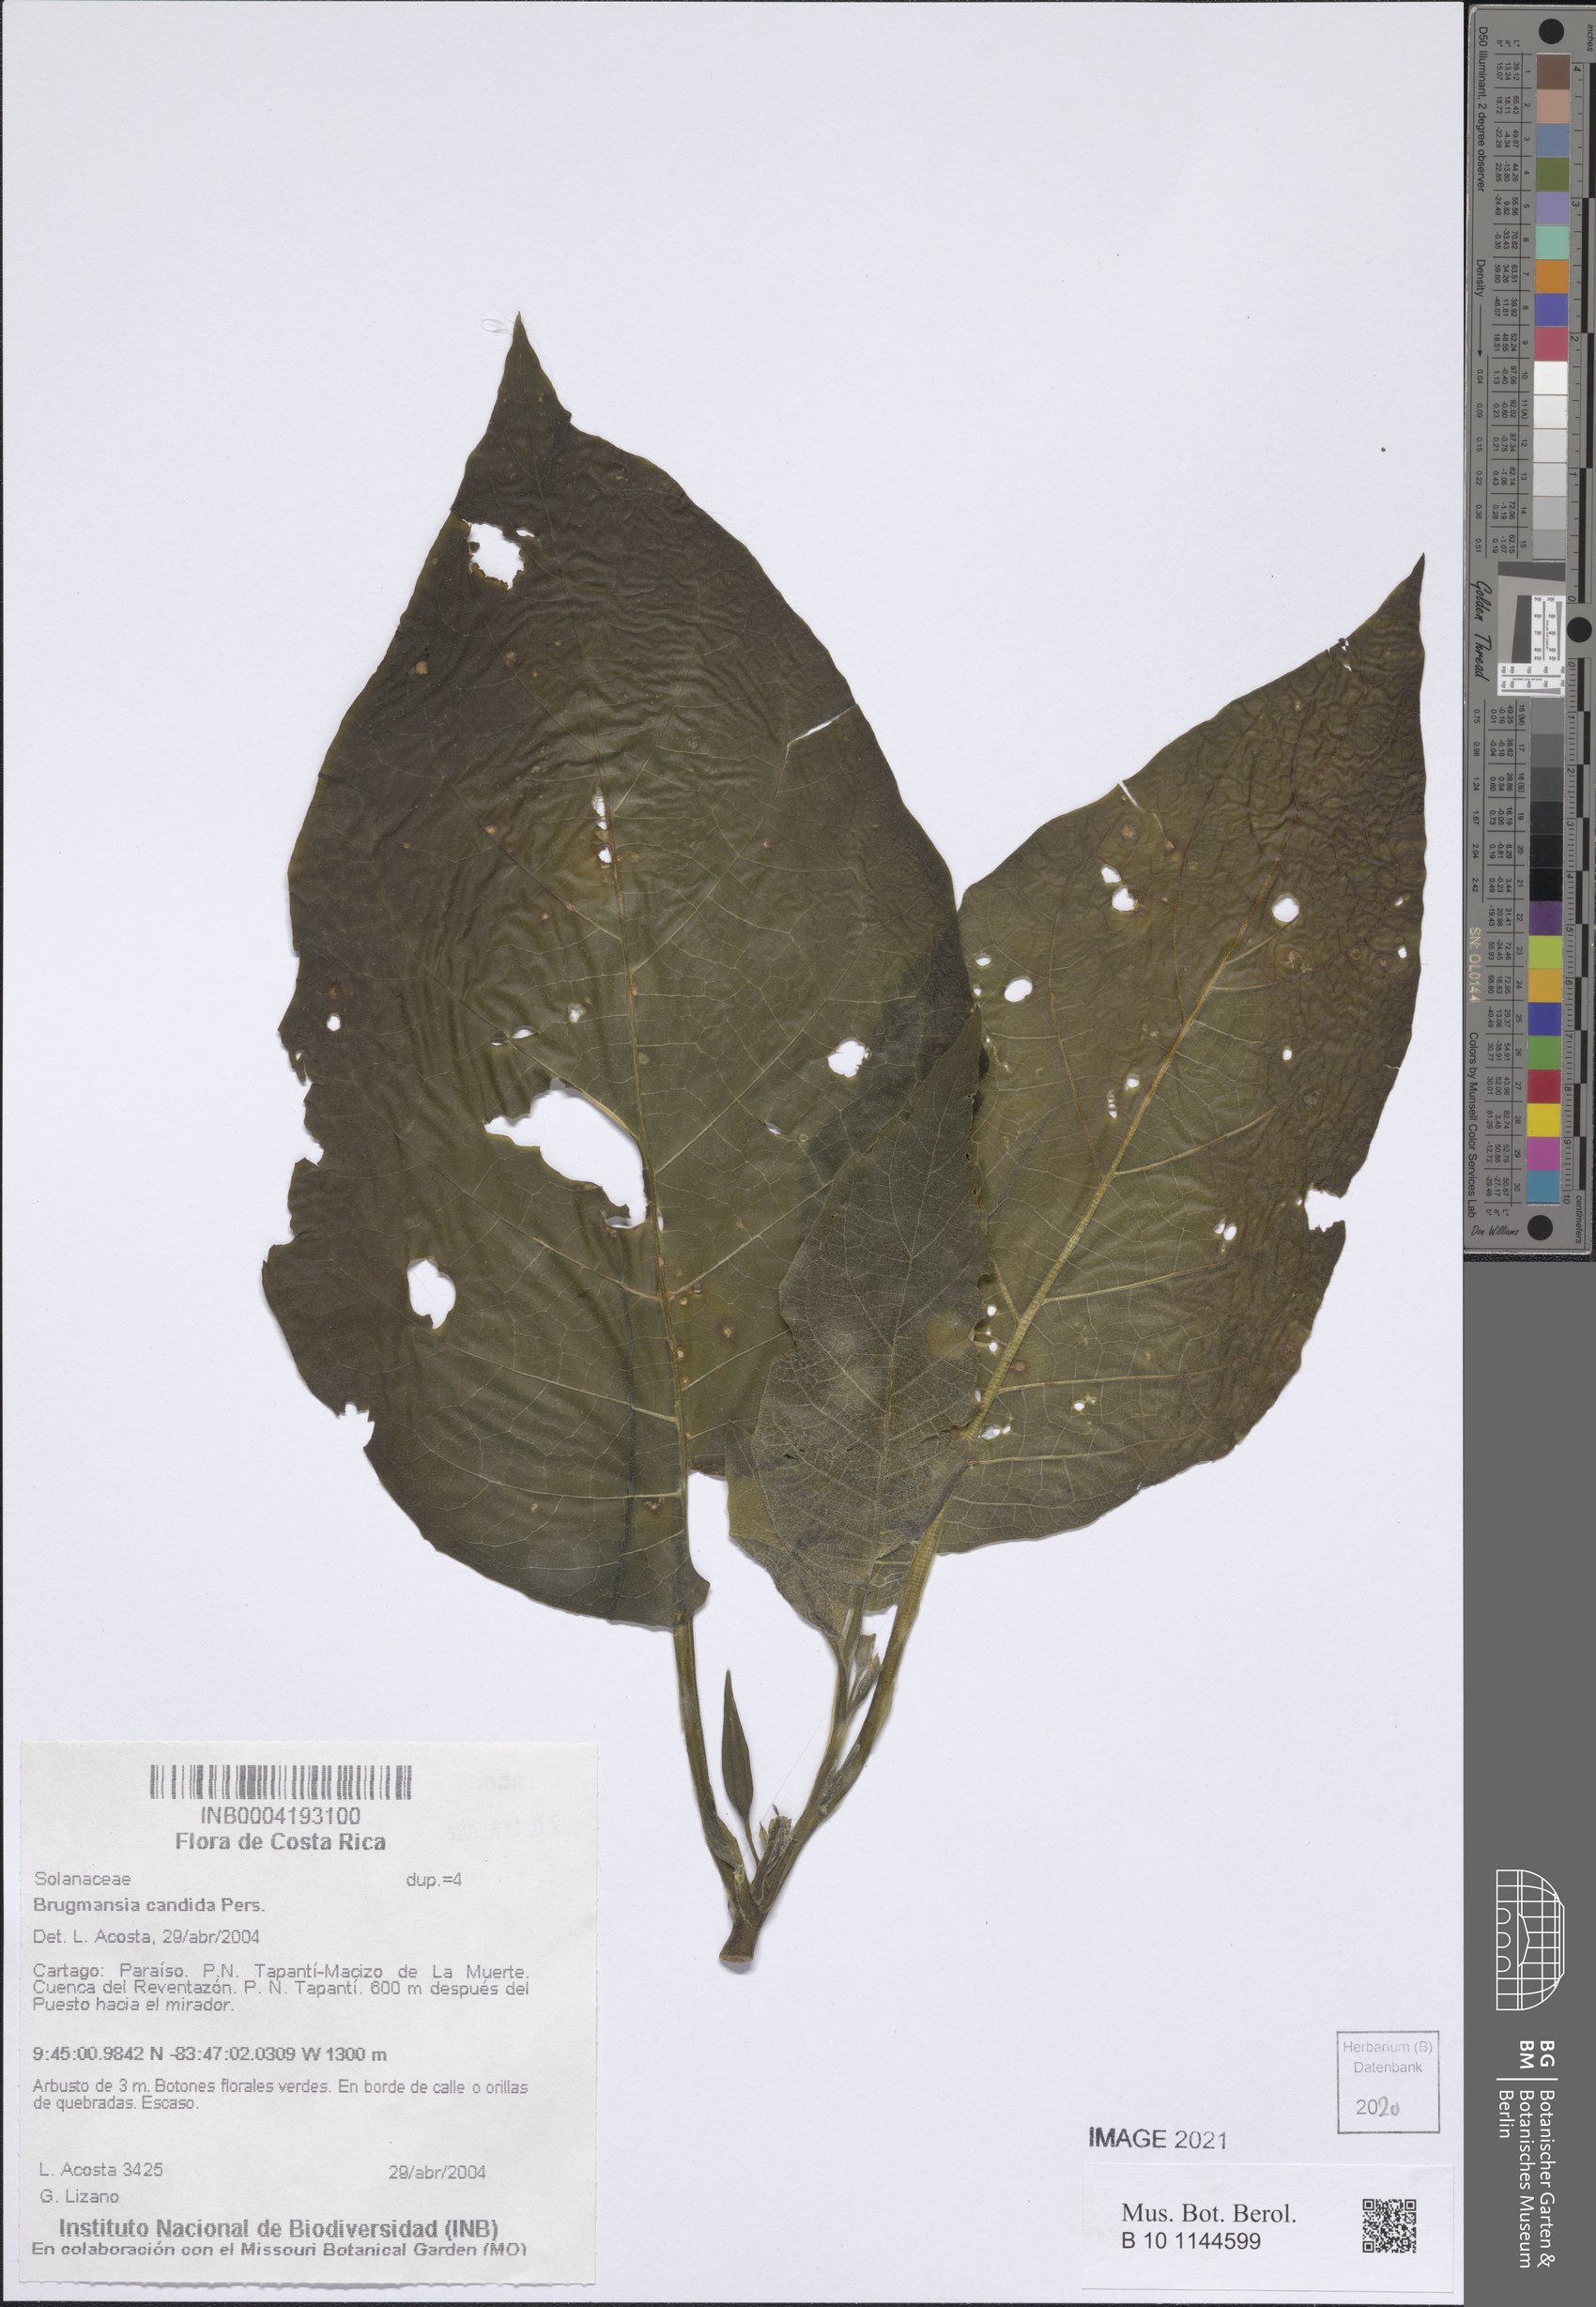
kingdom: Plantae
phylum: Tracheophyta
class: Magnoliopsida
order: Solanales
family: Solanaceae
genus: Brugmansia
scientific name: Brugmansia candida
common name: Angel's-trumpet
